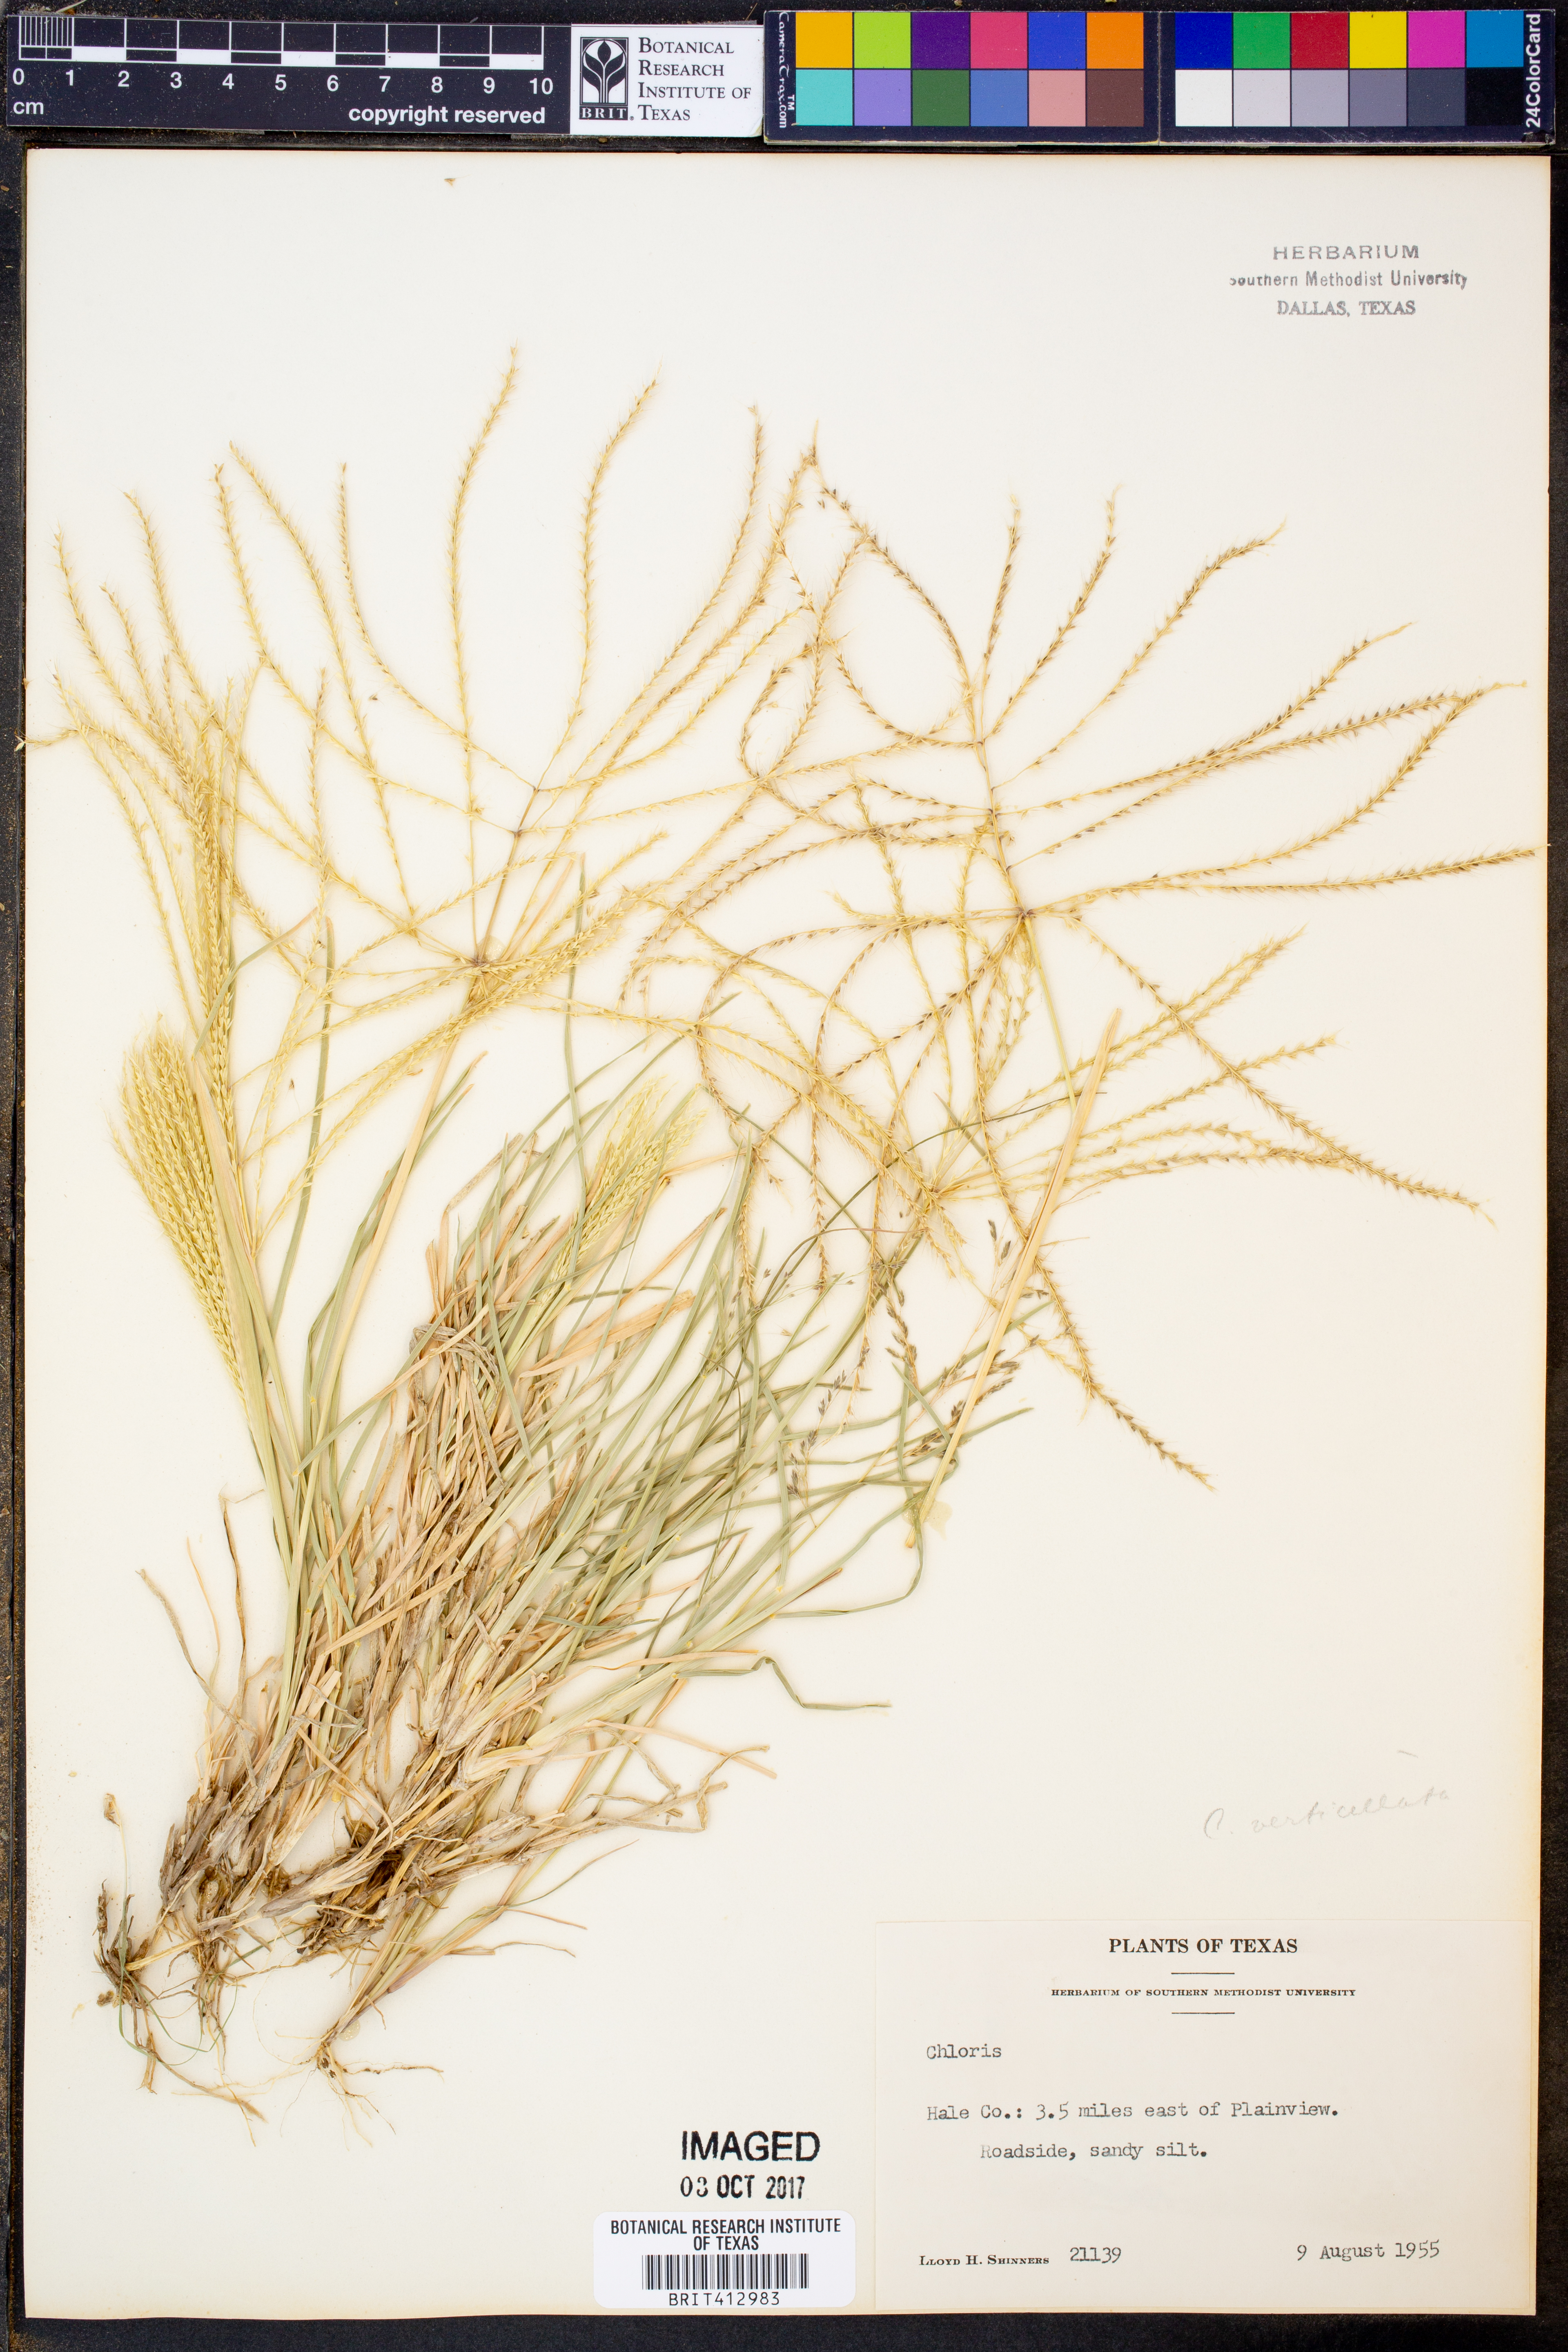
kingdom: Plantae
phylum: Tracheophyta
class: Liliopsida
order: Poales
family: Poaceae
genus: Chloris
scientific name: Chloris
